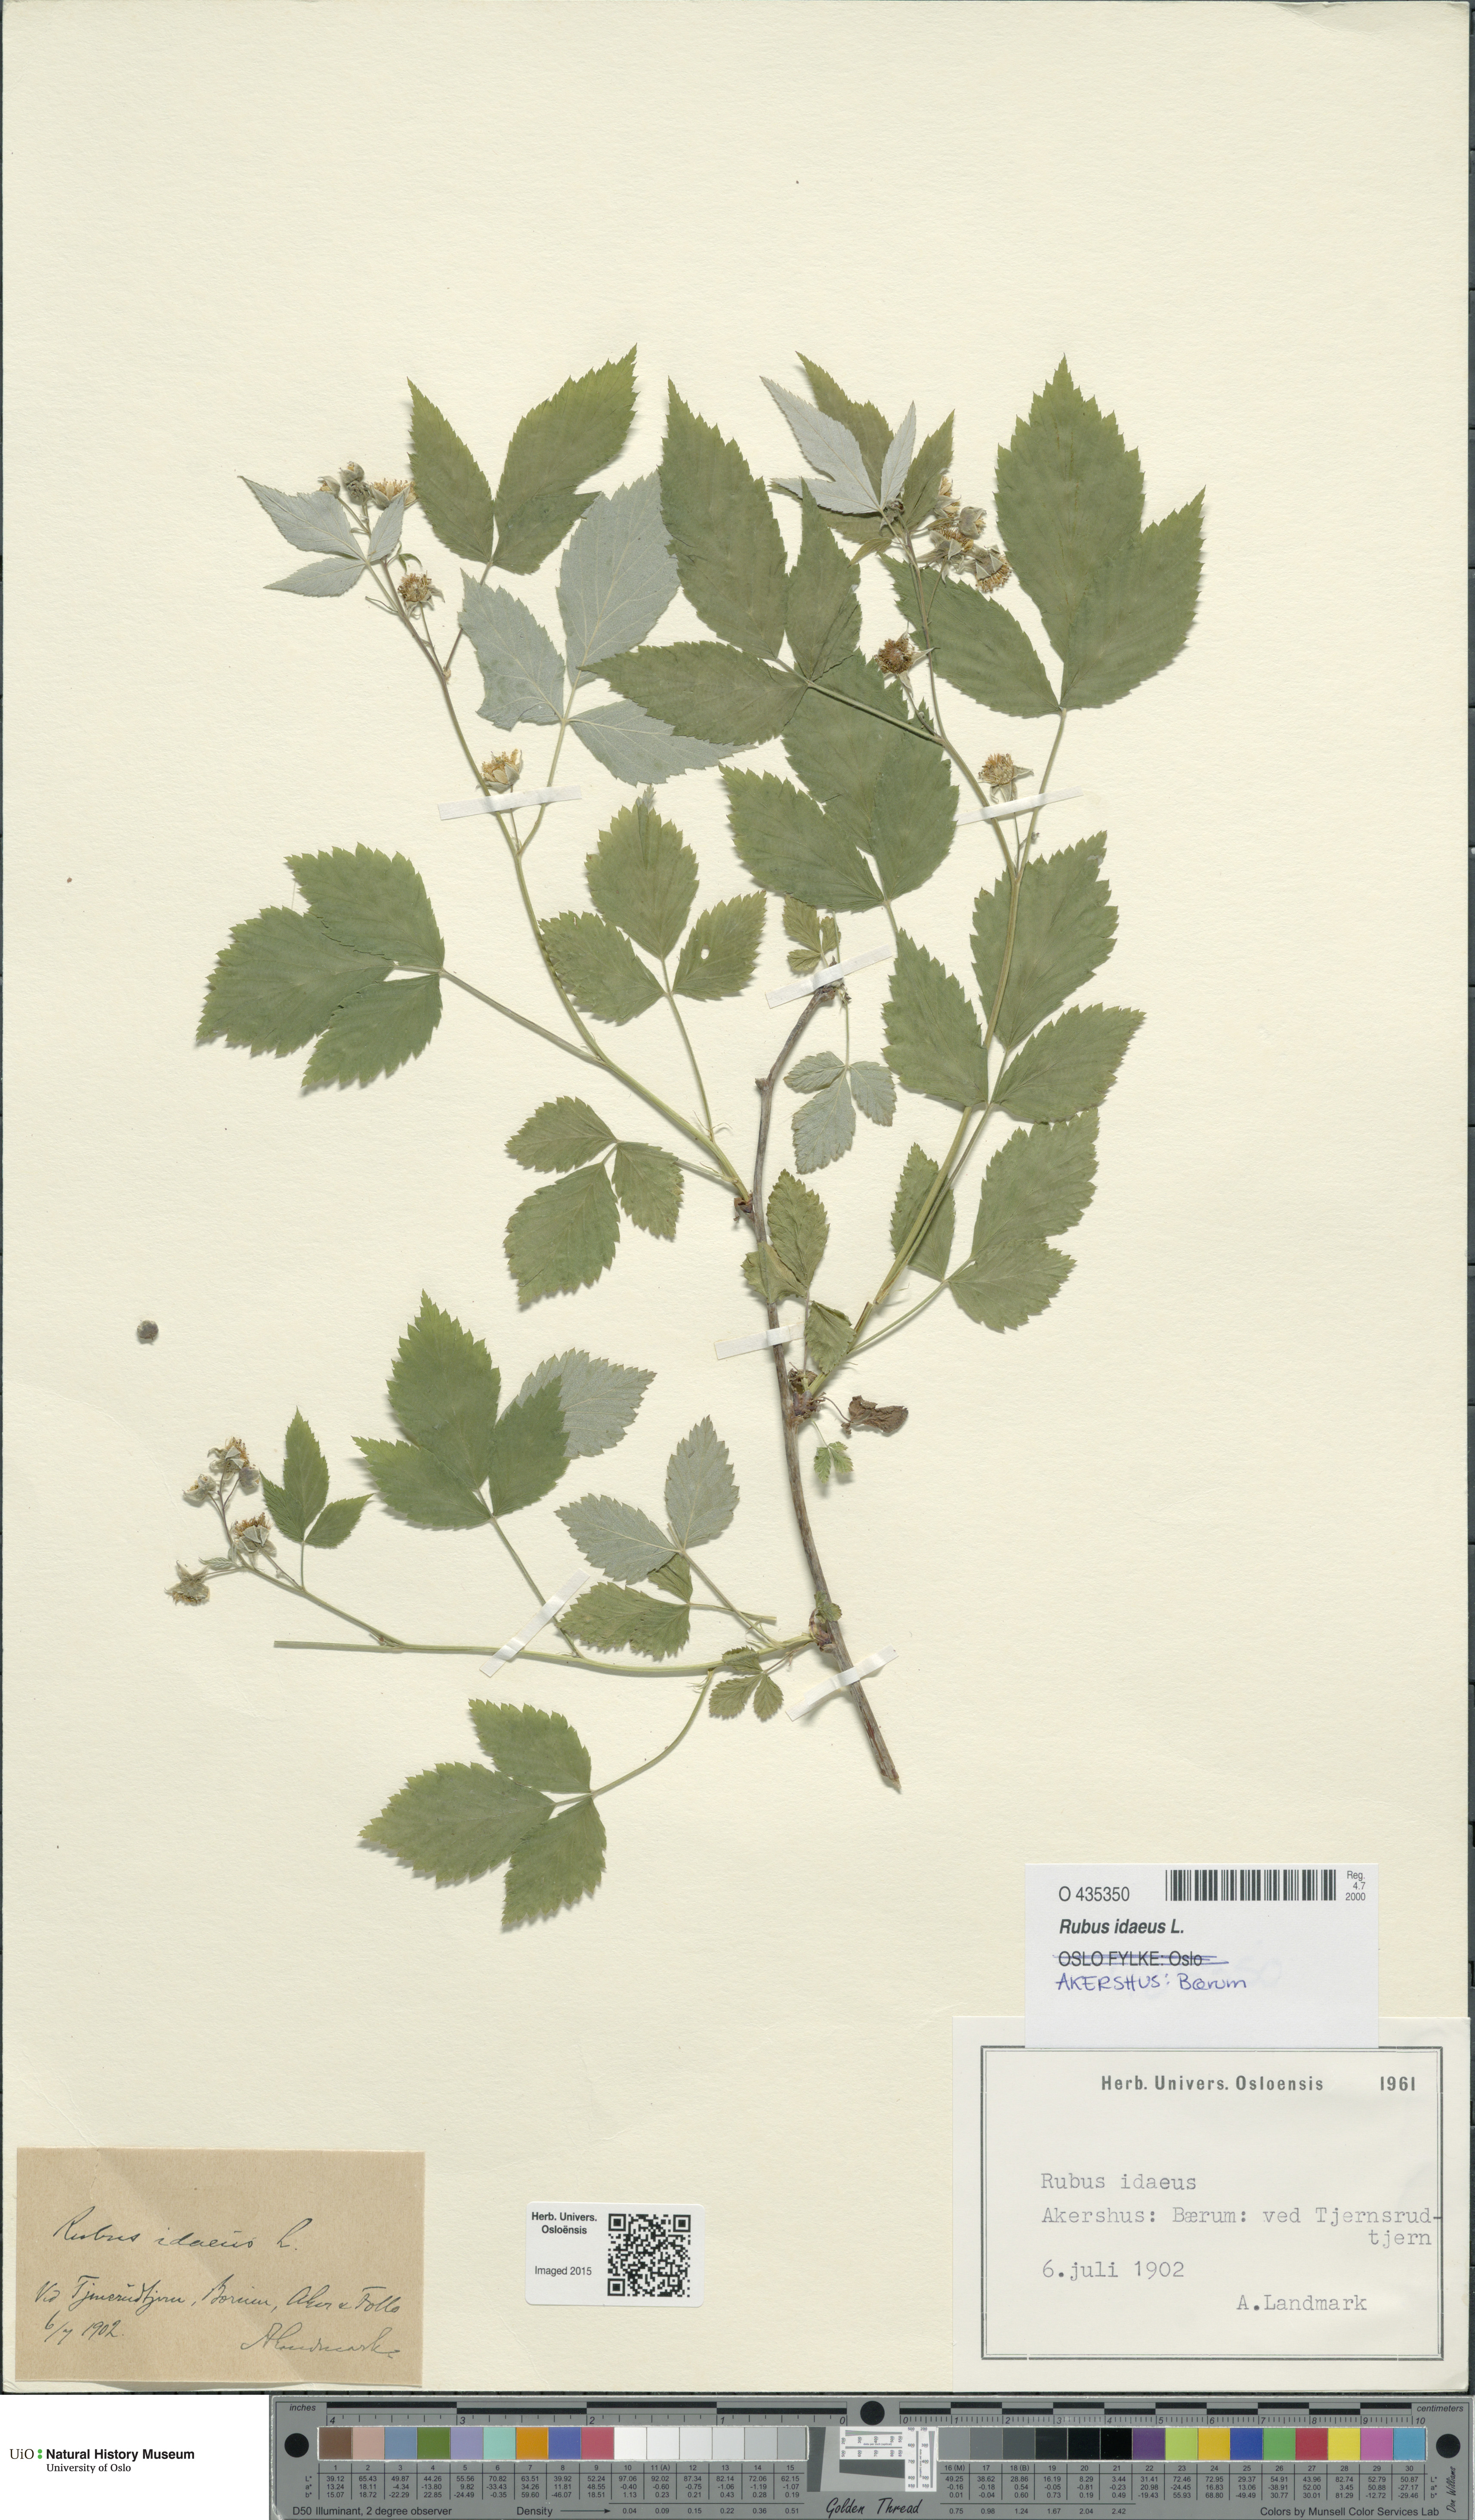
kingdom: Plantae
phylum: Tracheophyta
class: Magnoliopsida
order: Rosales
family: Rosaceae
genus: Rubus
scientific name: Rubus idaeus
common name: Raspberry
